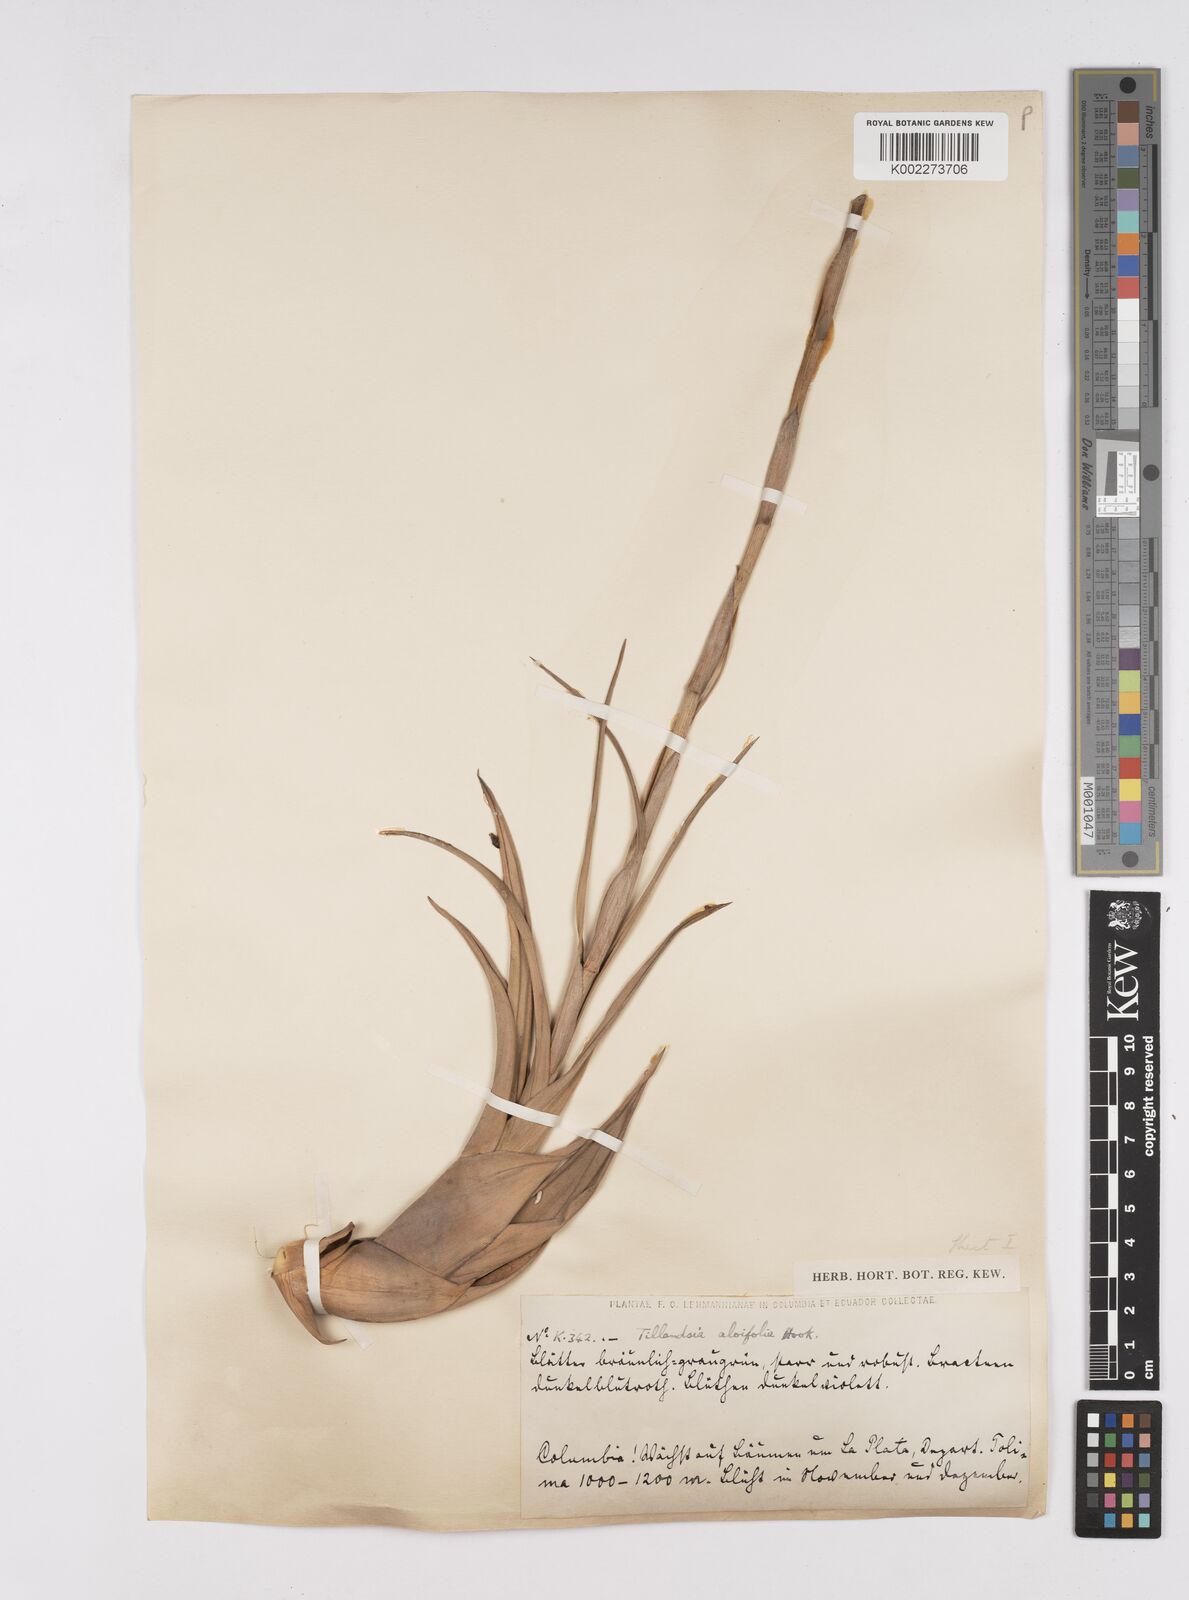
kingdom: Plantae
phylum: Tracheophyta
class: Liliopsida
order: Poales
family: Bromeliaceae
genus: Tillandsia
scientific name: Tillandsia flexuosa
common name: Banded airplant
